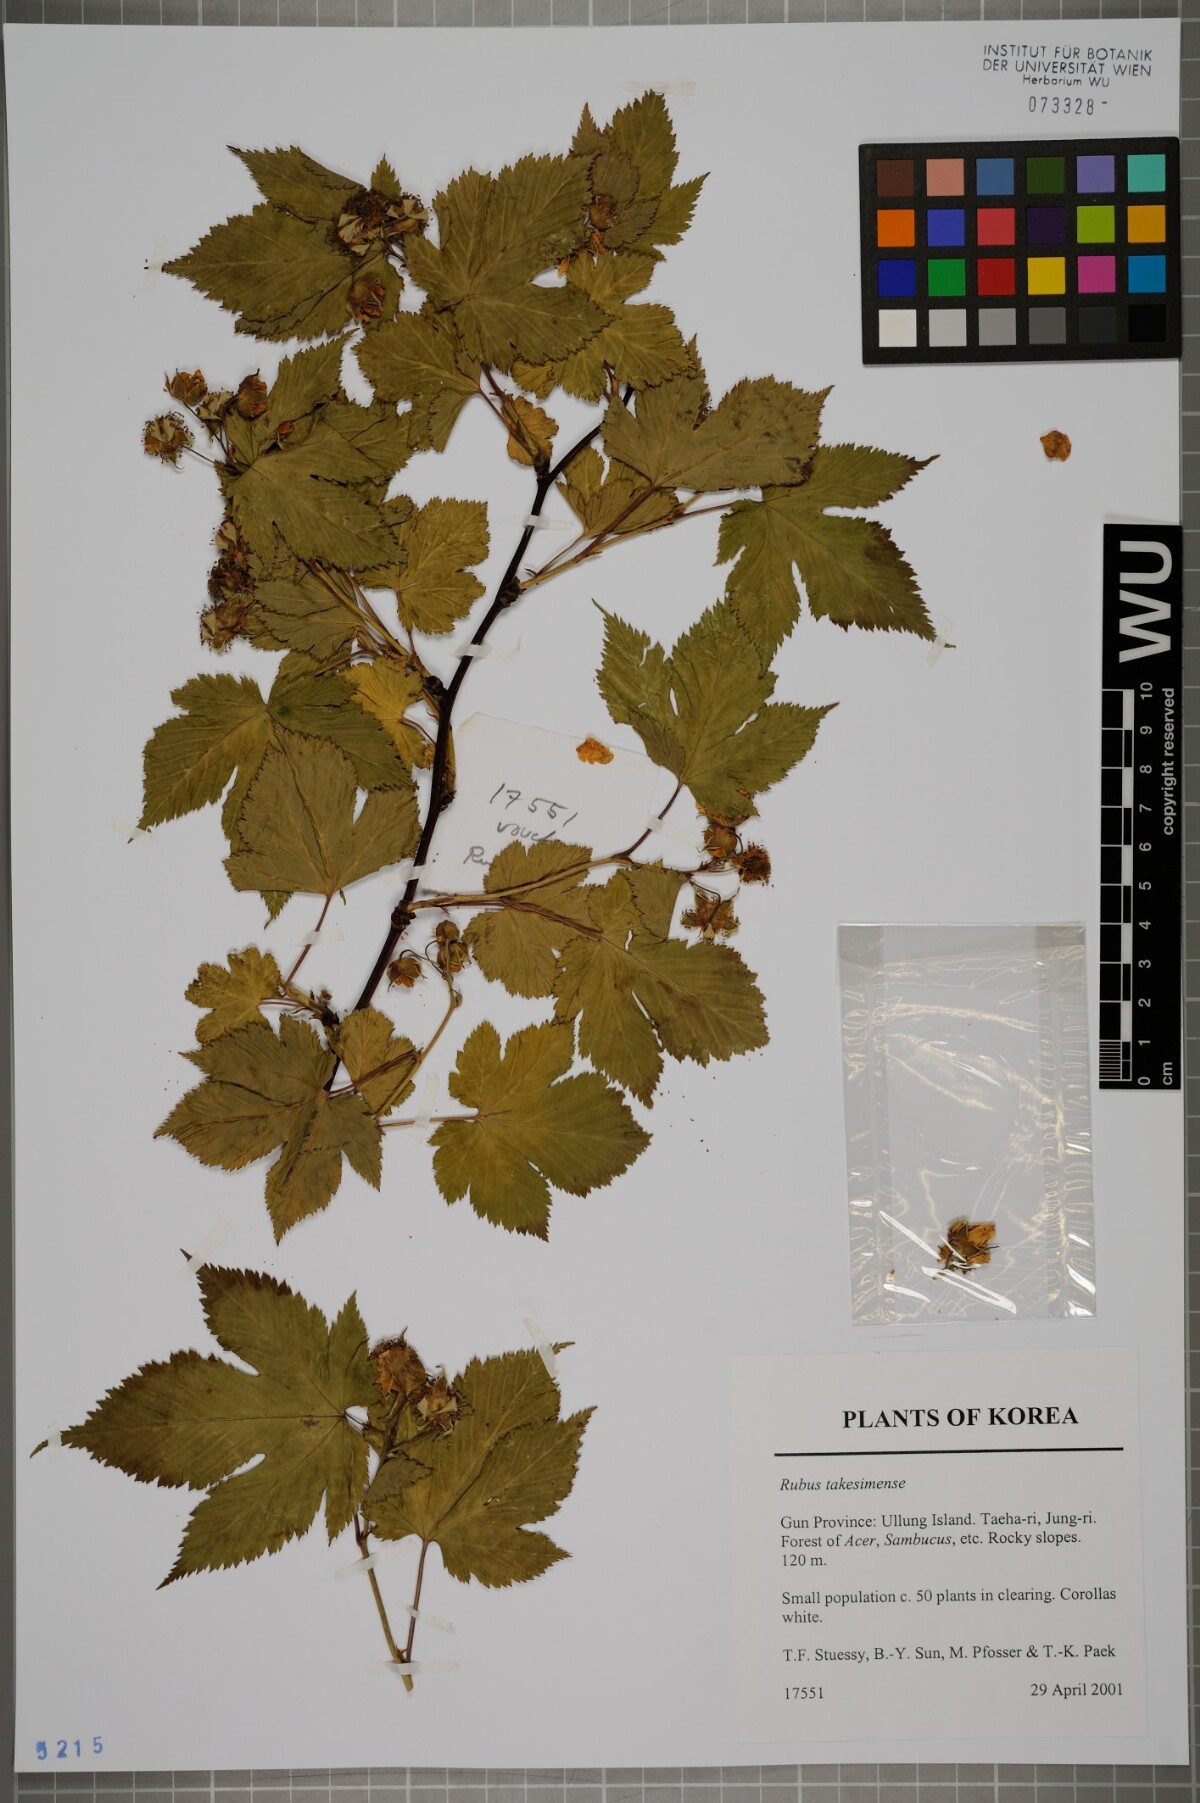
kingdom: Plantae
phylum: Tracheophyta
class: Magnoliopsida
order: Rosales
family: Rosaceae
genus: Rubus
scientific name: Rubus crataegifolius
